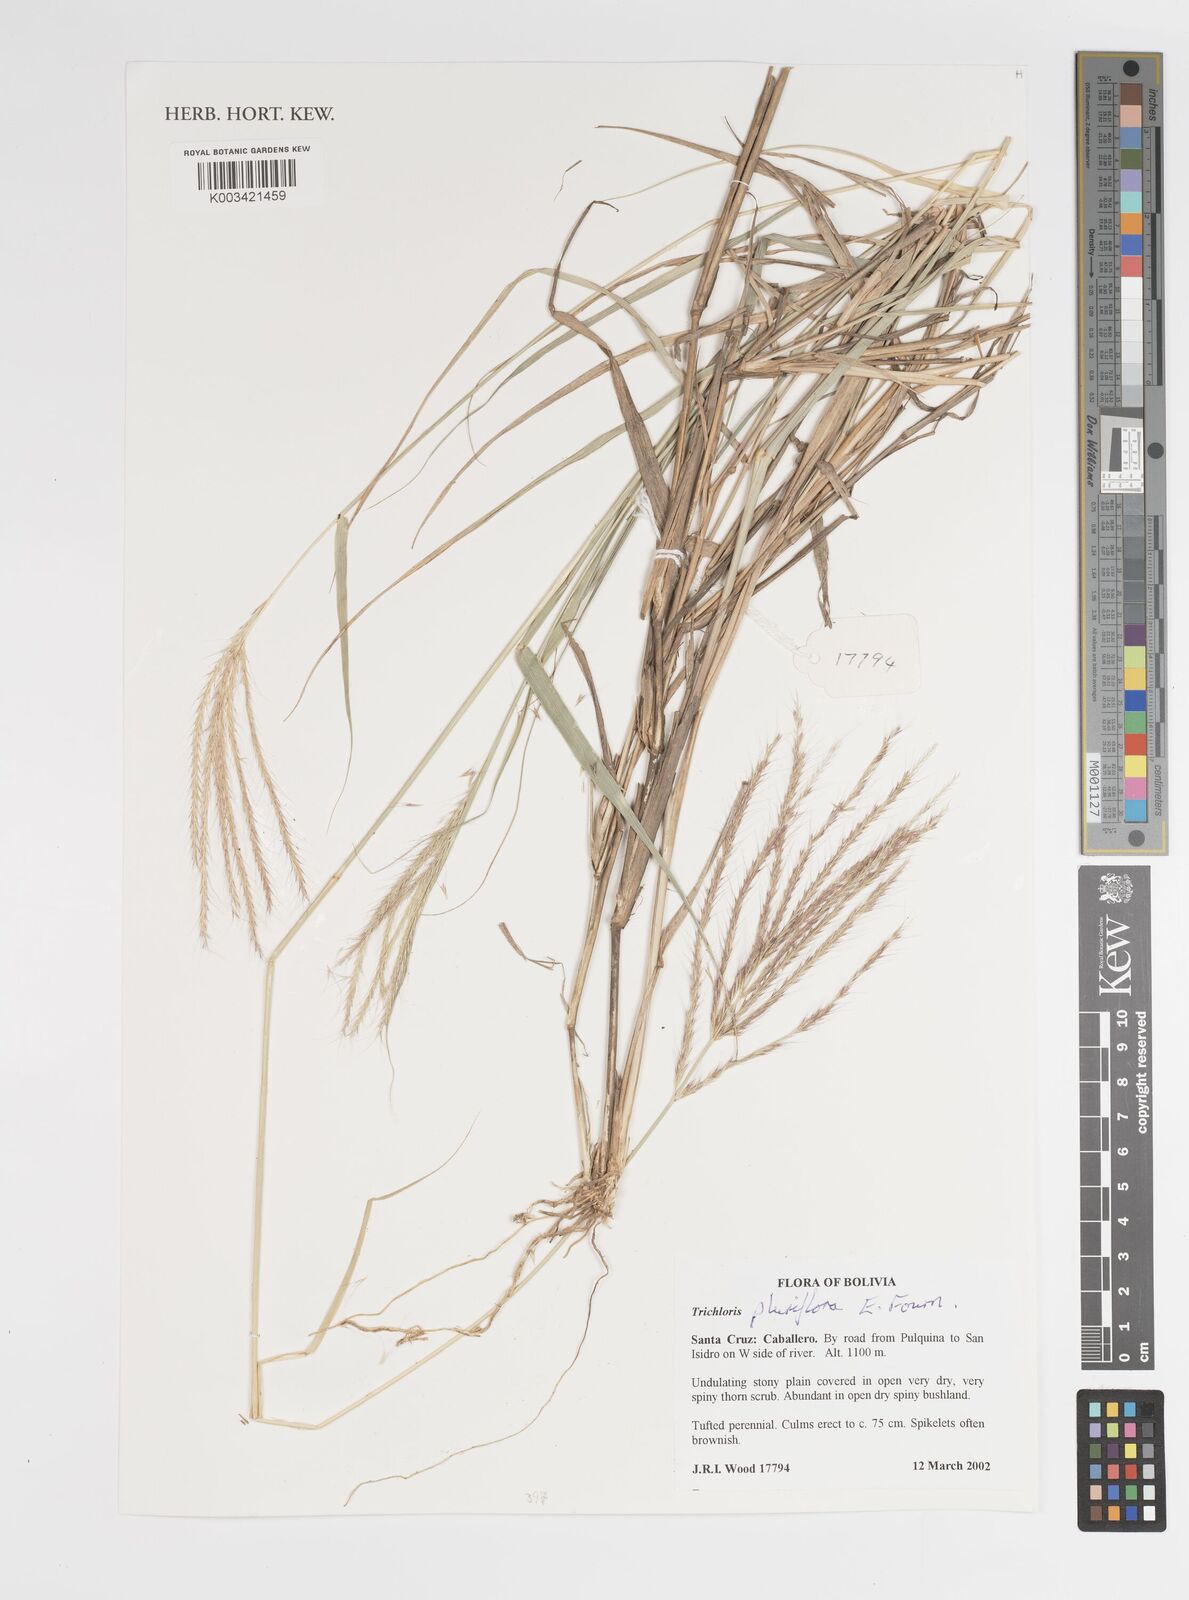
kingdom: Plantae
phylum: Tracheophyta
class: Liliopsida
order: Poales
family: Poaceae
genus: Leptochloa
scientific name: Leptochloa pluriflora
